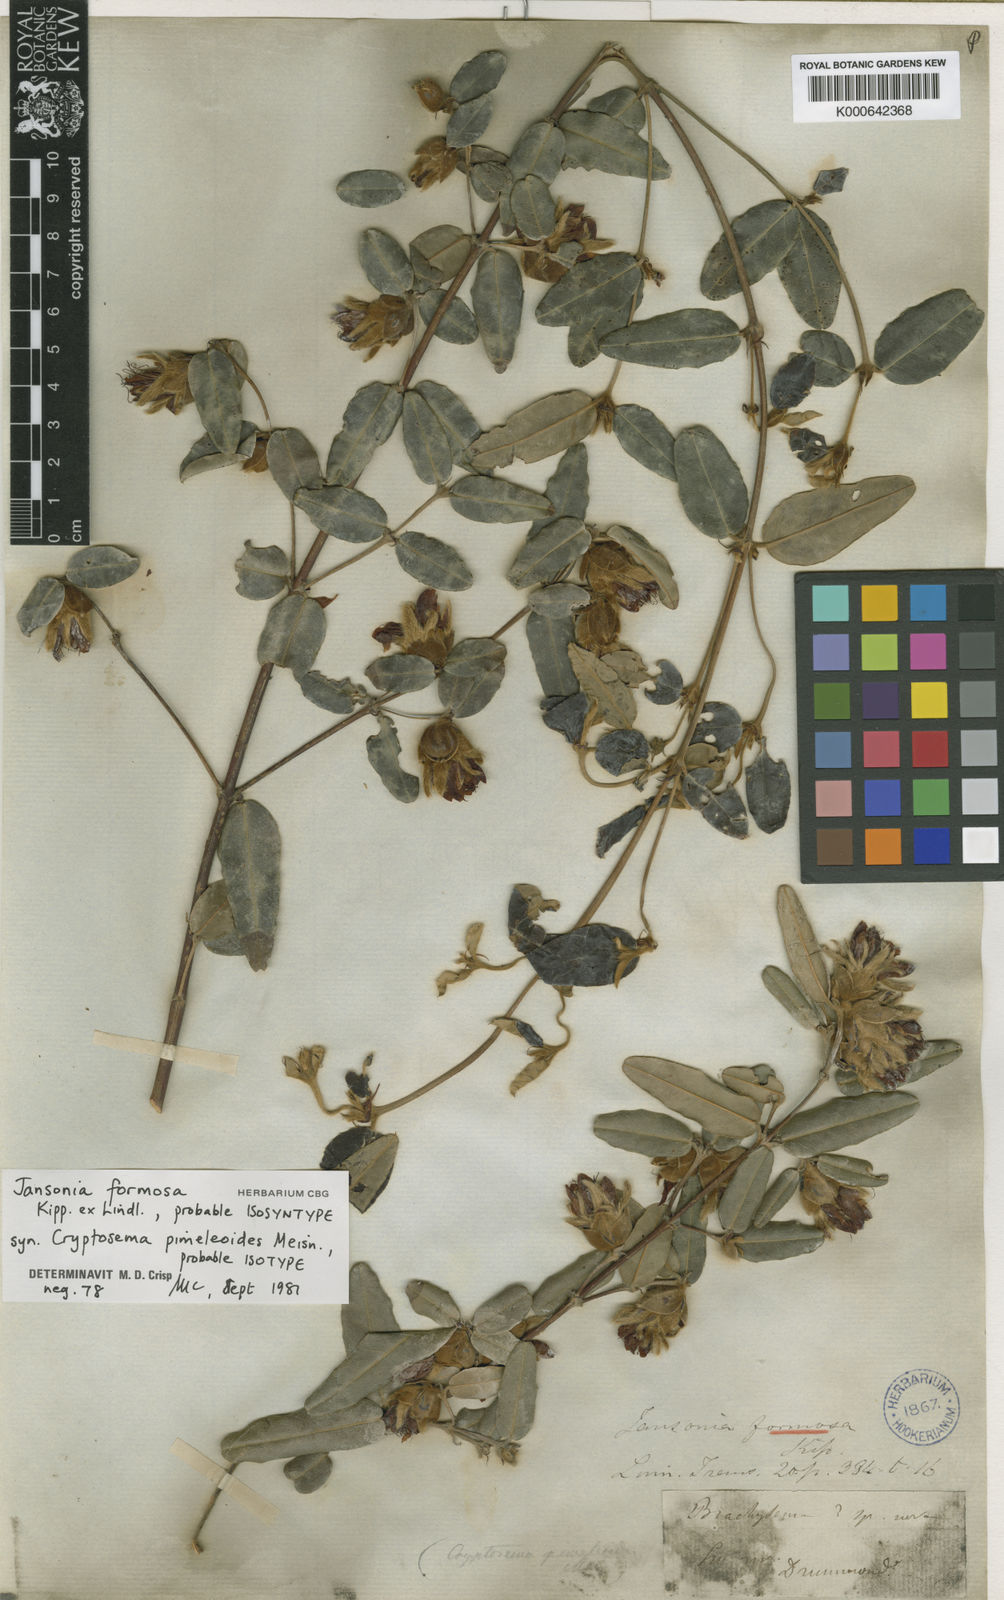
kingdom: Plantae
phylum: Tracheophyta
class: Magnoliopsida
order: Fabales
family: Fabaceae
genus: Gastrolobium
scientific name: Gastrolobium formosum
